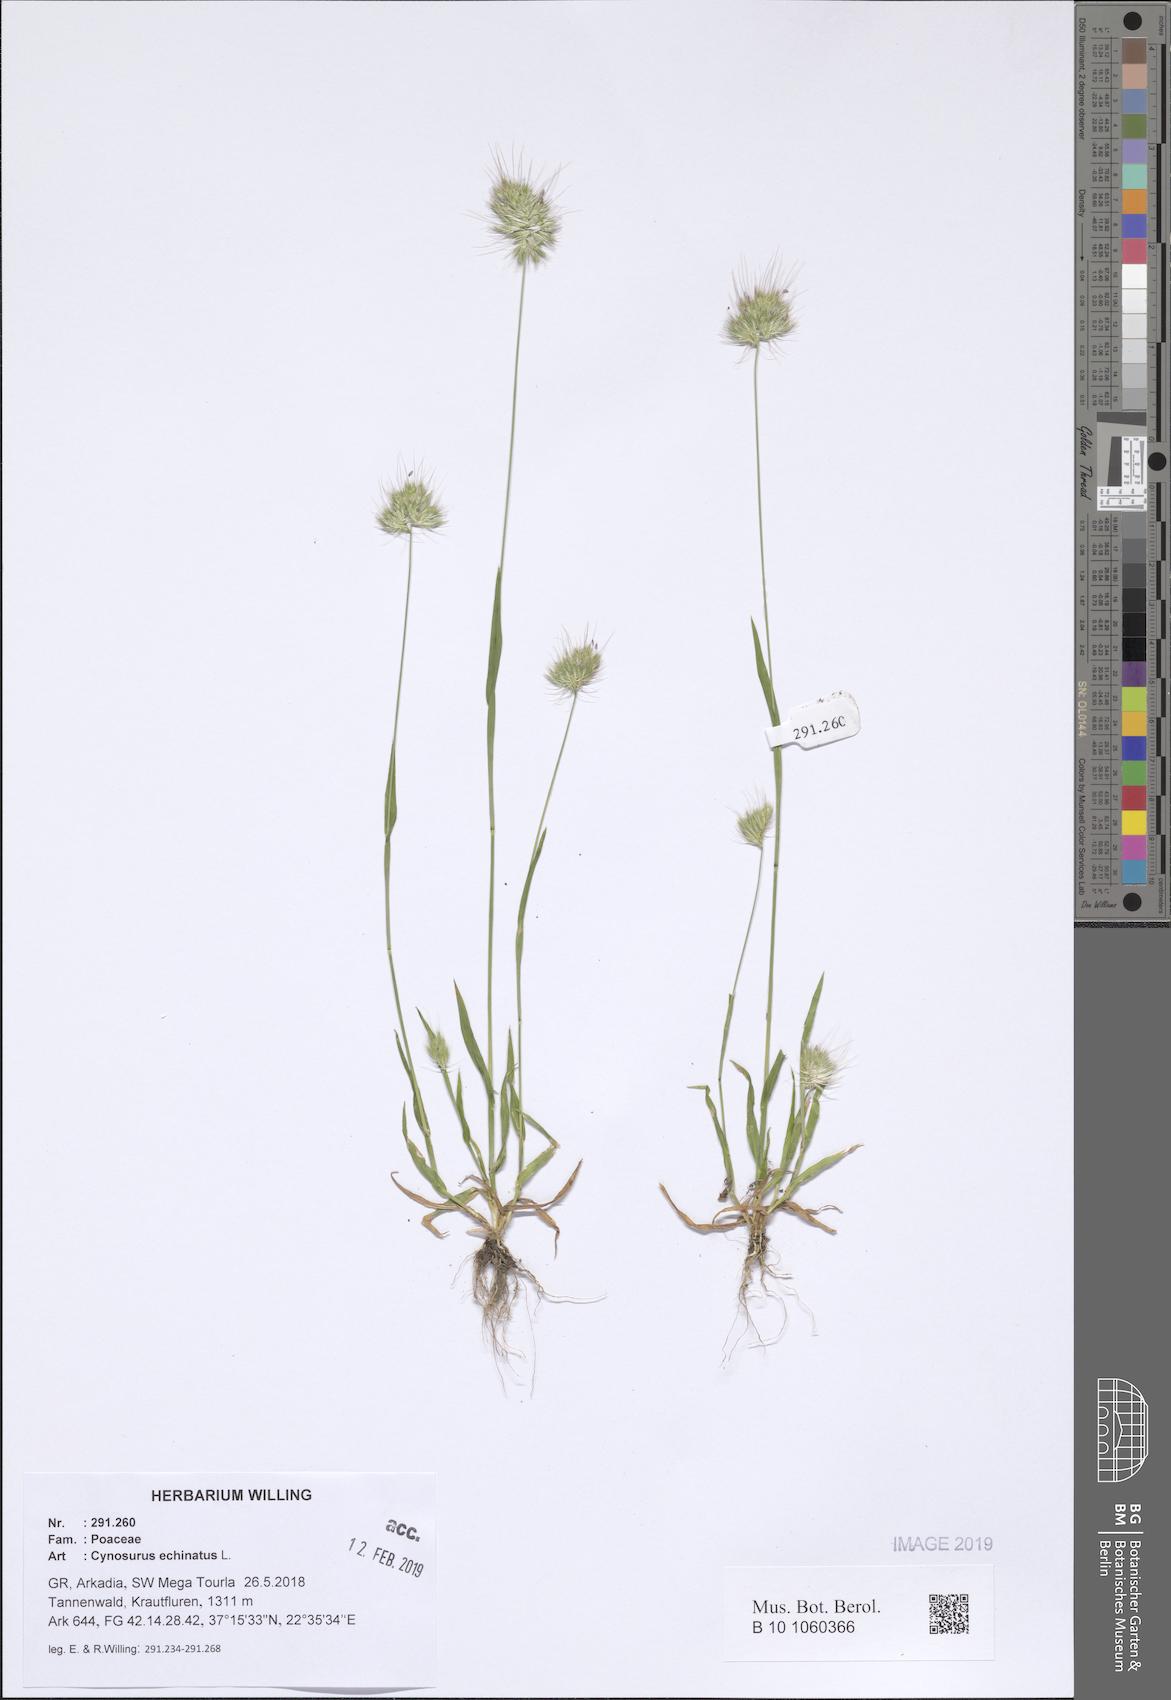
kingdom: Plantae
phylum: Tracheophyta
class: Liliopsida
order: Poales
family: Poaceae
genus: Cynosurus
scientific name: Cynosurus echinatus
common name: Rough dog's-tail
